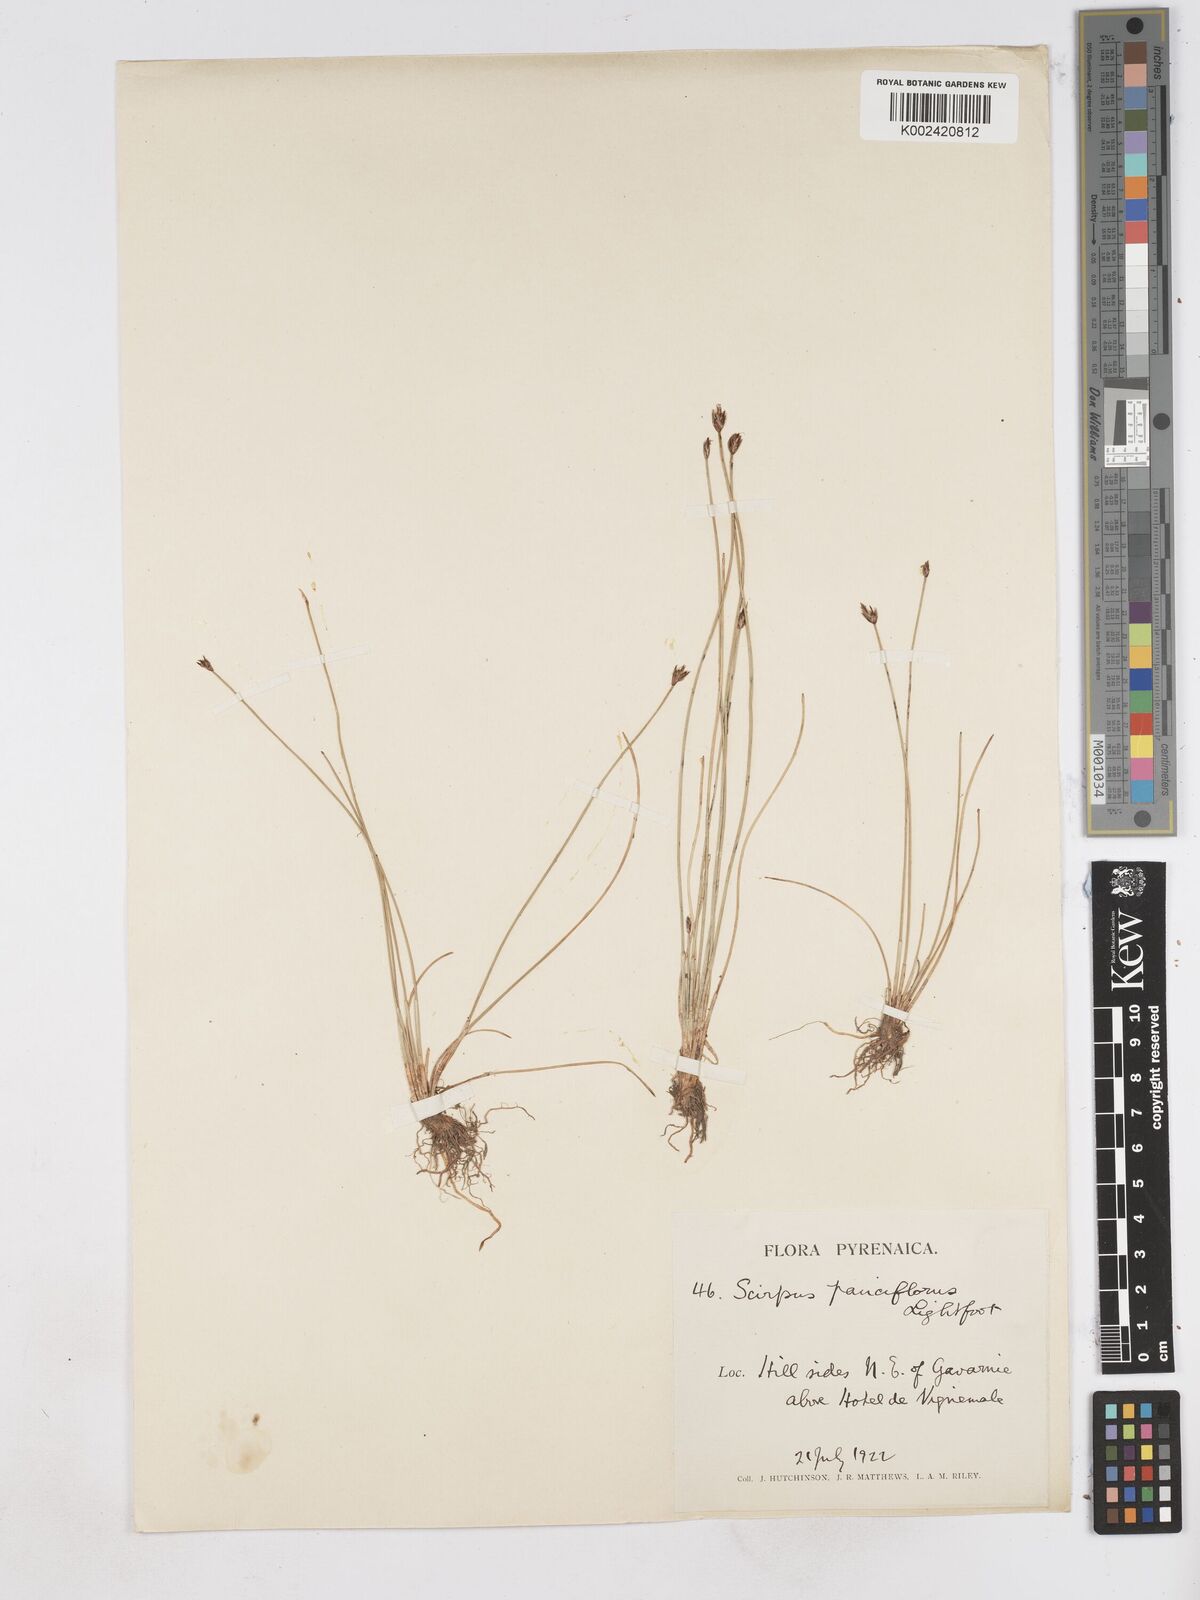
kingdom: Plantae
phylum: Tracheophyta
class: Liliopsida
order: Poales
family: Cyperaceae
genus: Eleocharis
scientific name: Eleocharis quinqueflora
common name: Few-flowered spike-rush
